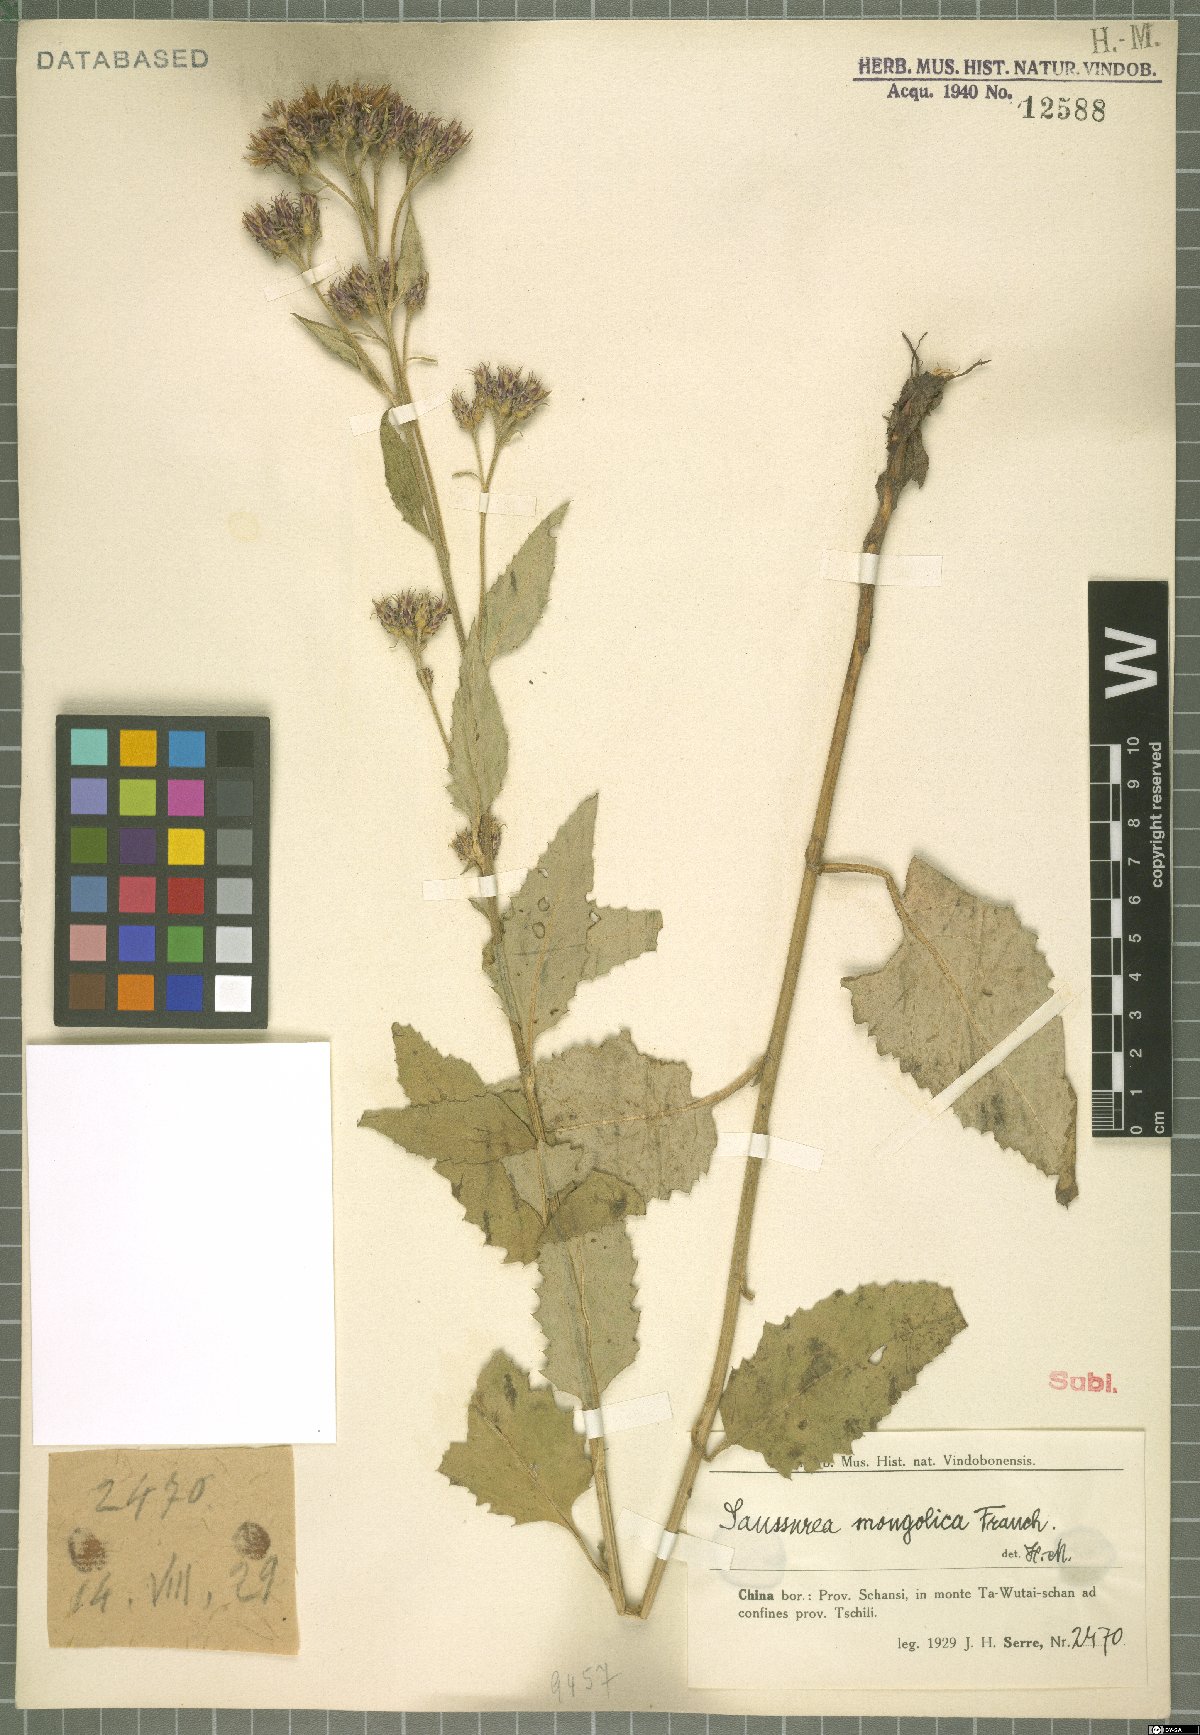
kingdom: Plantae
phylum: Tracheophyta
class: Magnoliopsida
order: Asterales
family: Asteraceae
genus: Saussurea
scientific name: Saussurea mongolica
